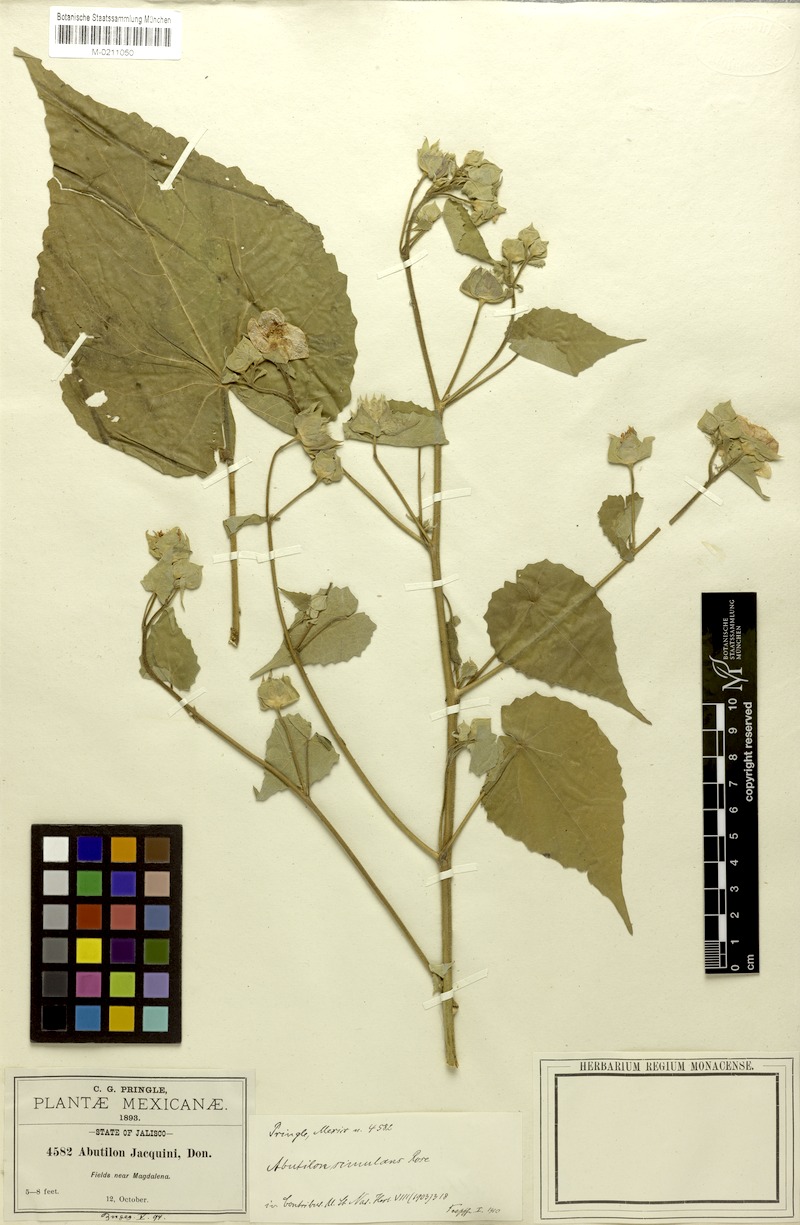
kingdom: Plantae
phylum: Tracheophyta
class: Magnoliopsida
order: Malvales
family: Malvaceae
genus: Abutilon
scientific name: Abutilon simulans
